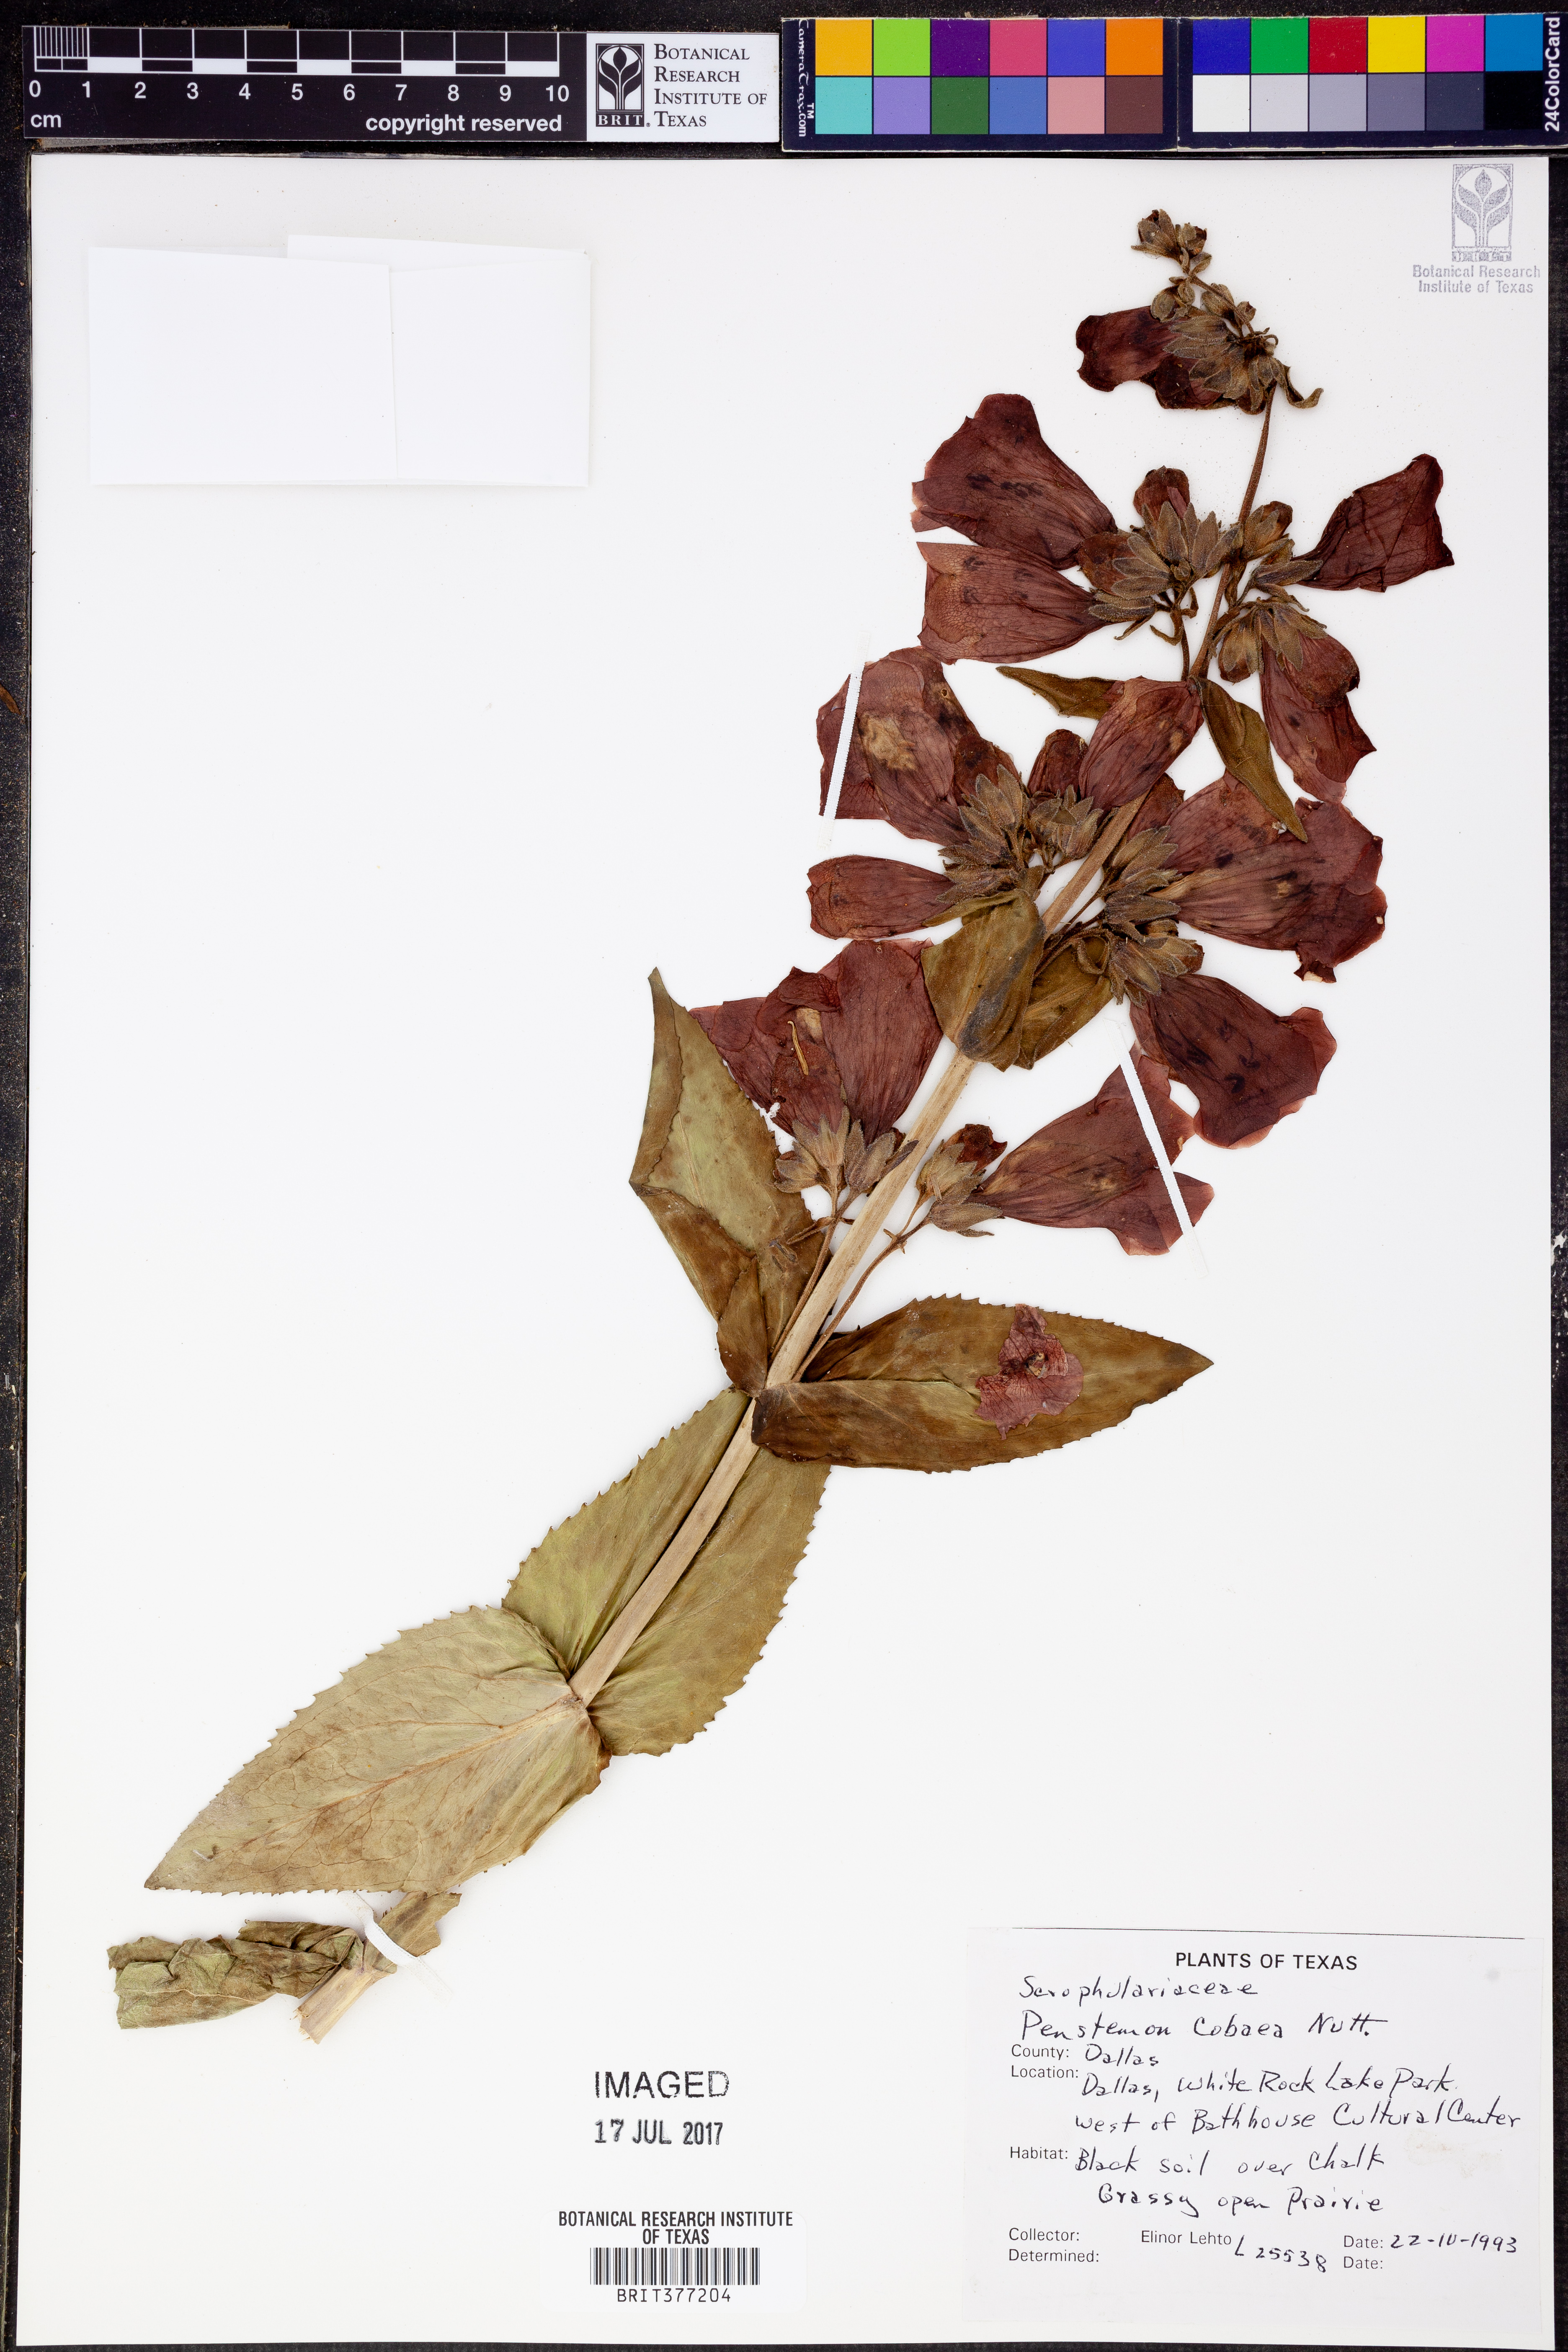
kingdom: Plantae
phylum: Tracheophyta
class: Magnoliopsida
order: Lamiales
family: Plantaginaceae
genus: Penstemon
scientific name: Penstemon cobaea
